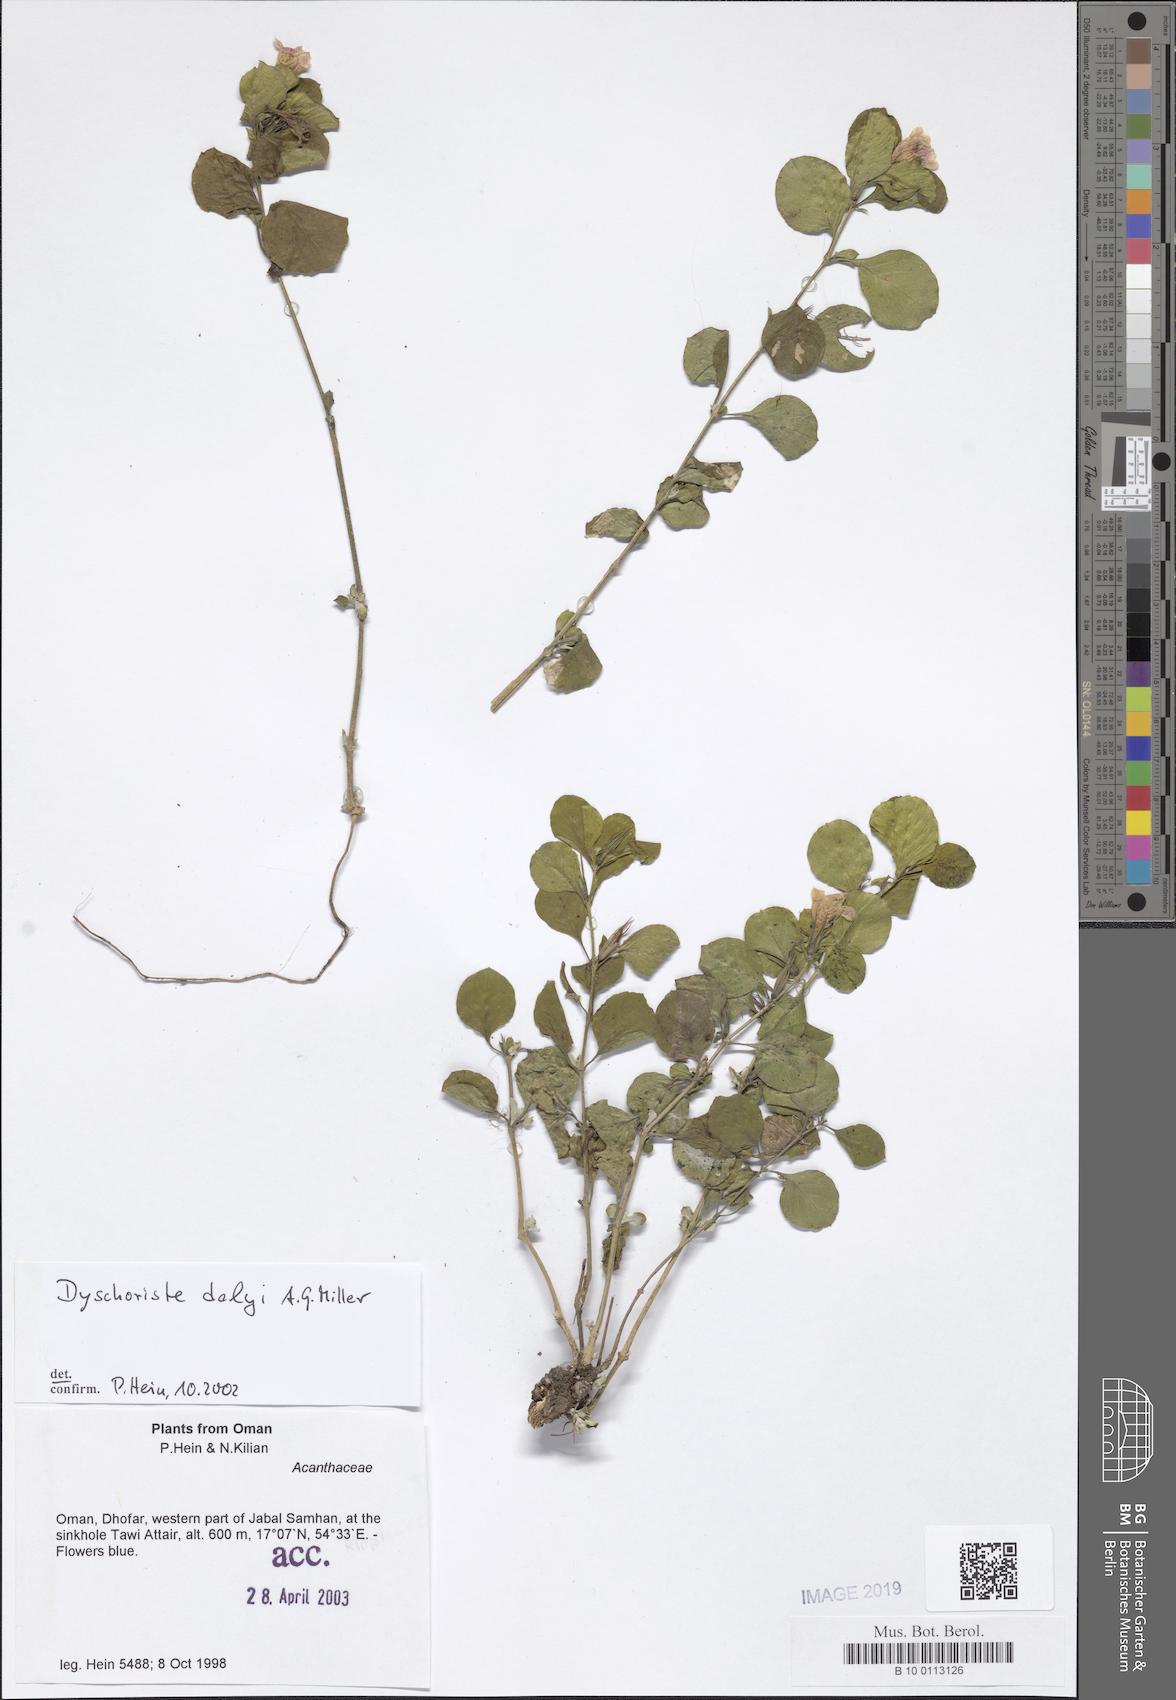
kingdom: Plantae
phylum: Tracheophyta
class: Magnoliopsida
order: Lamiales
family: Acanthaceae
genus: Dyschoriste
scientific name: Dyschoriste dalyi
